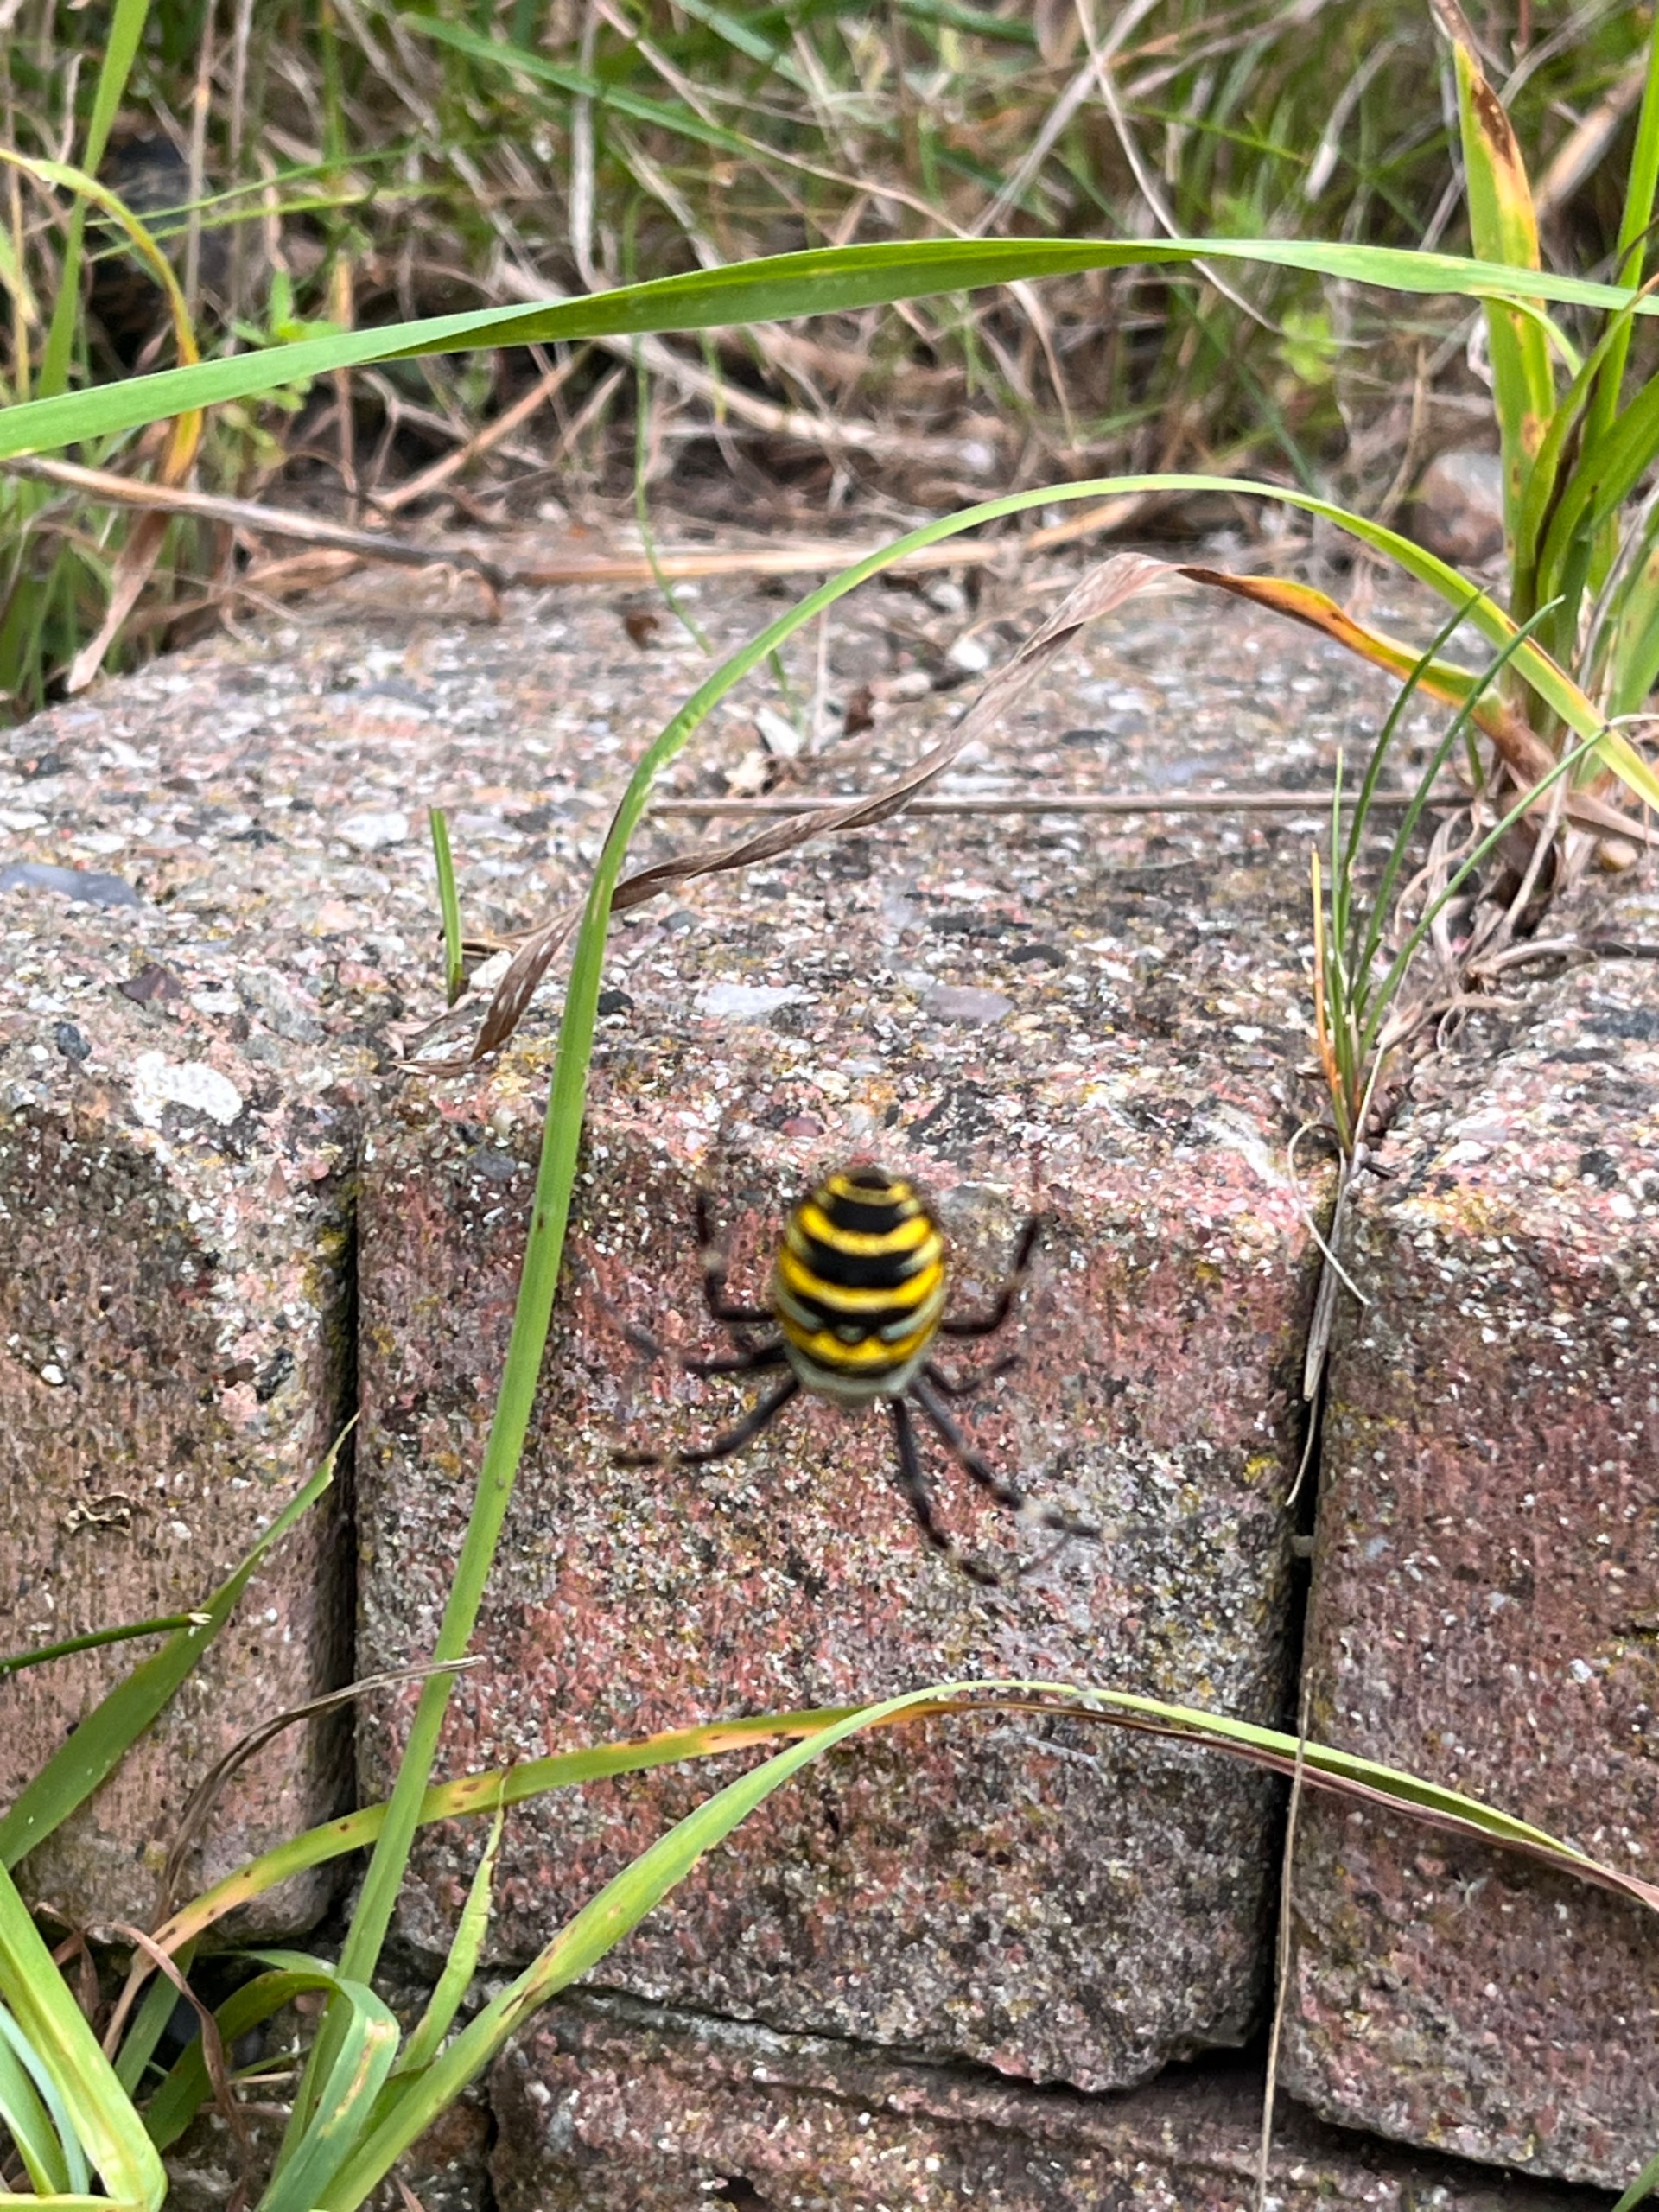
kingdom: Animalia
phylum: Arthropoda
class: Arachnida
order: Araneae
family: Araneidae
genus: Argiope
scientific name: Argiope bruennichi
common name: Hvepseedderkop
